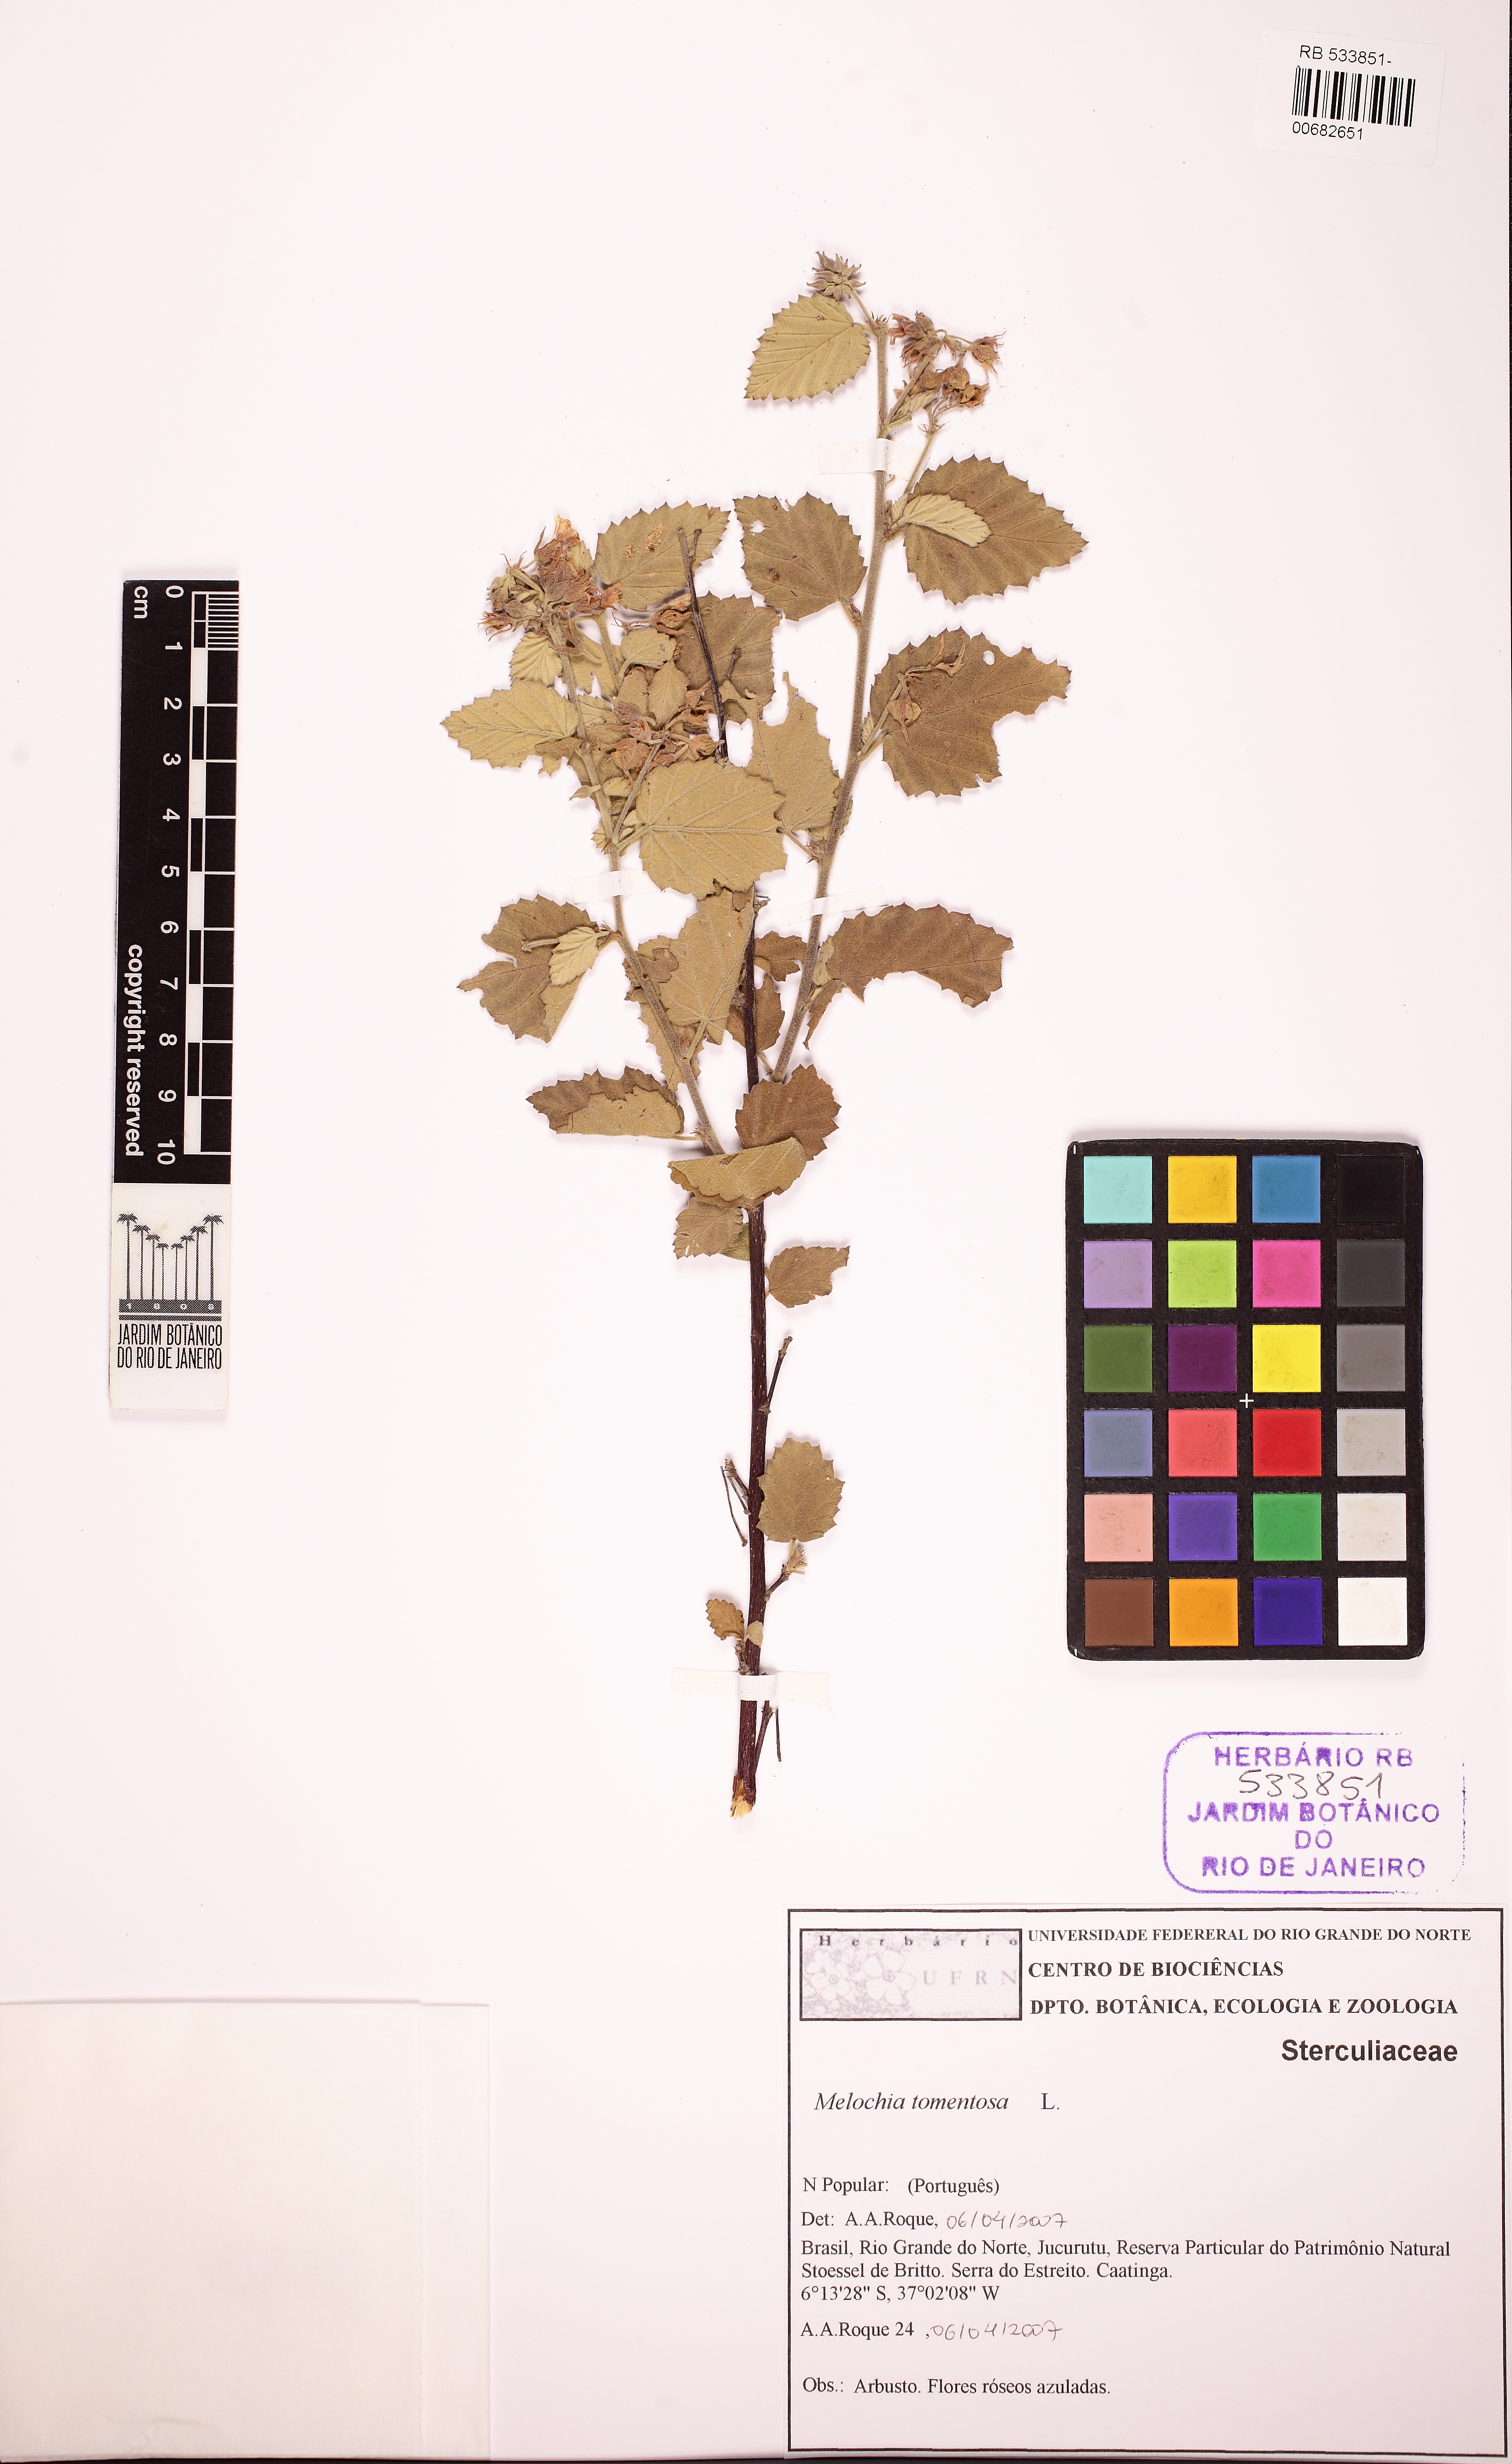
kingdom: Plantae
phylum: Tracheophyta
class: Magnoliopsida
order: Malvales
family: Malvaceae
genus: Melochia
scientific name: Melochia tomentosa
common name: Black torch
